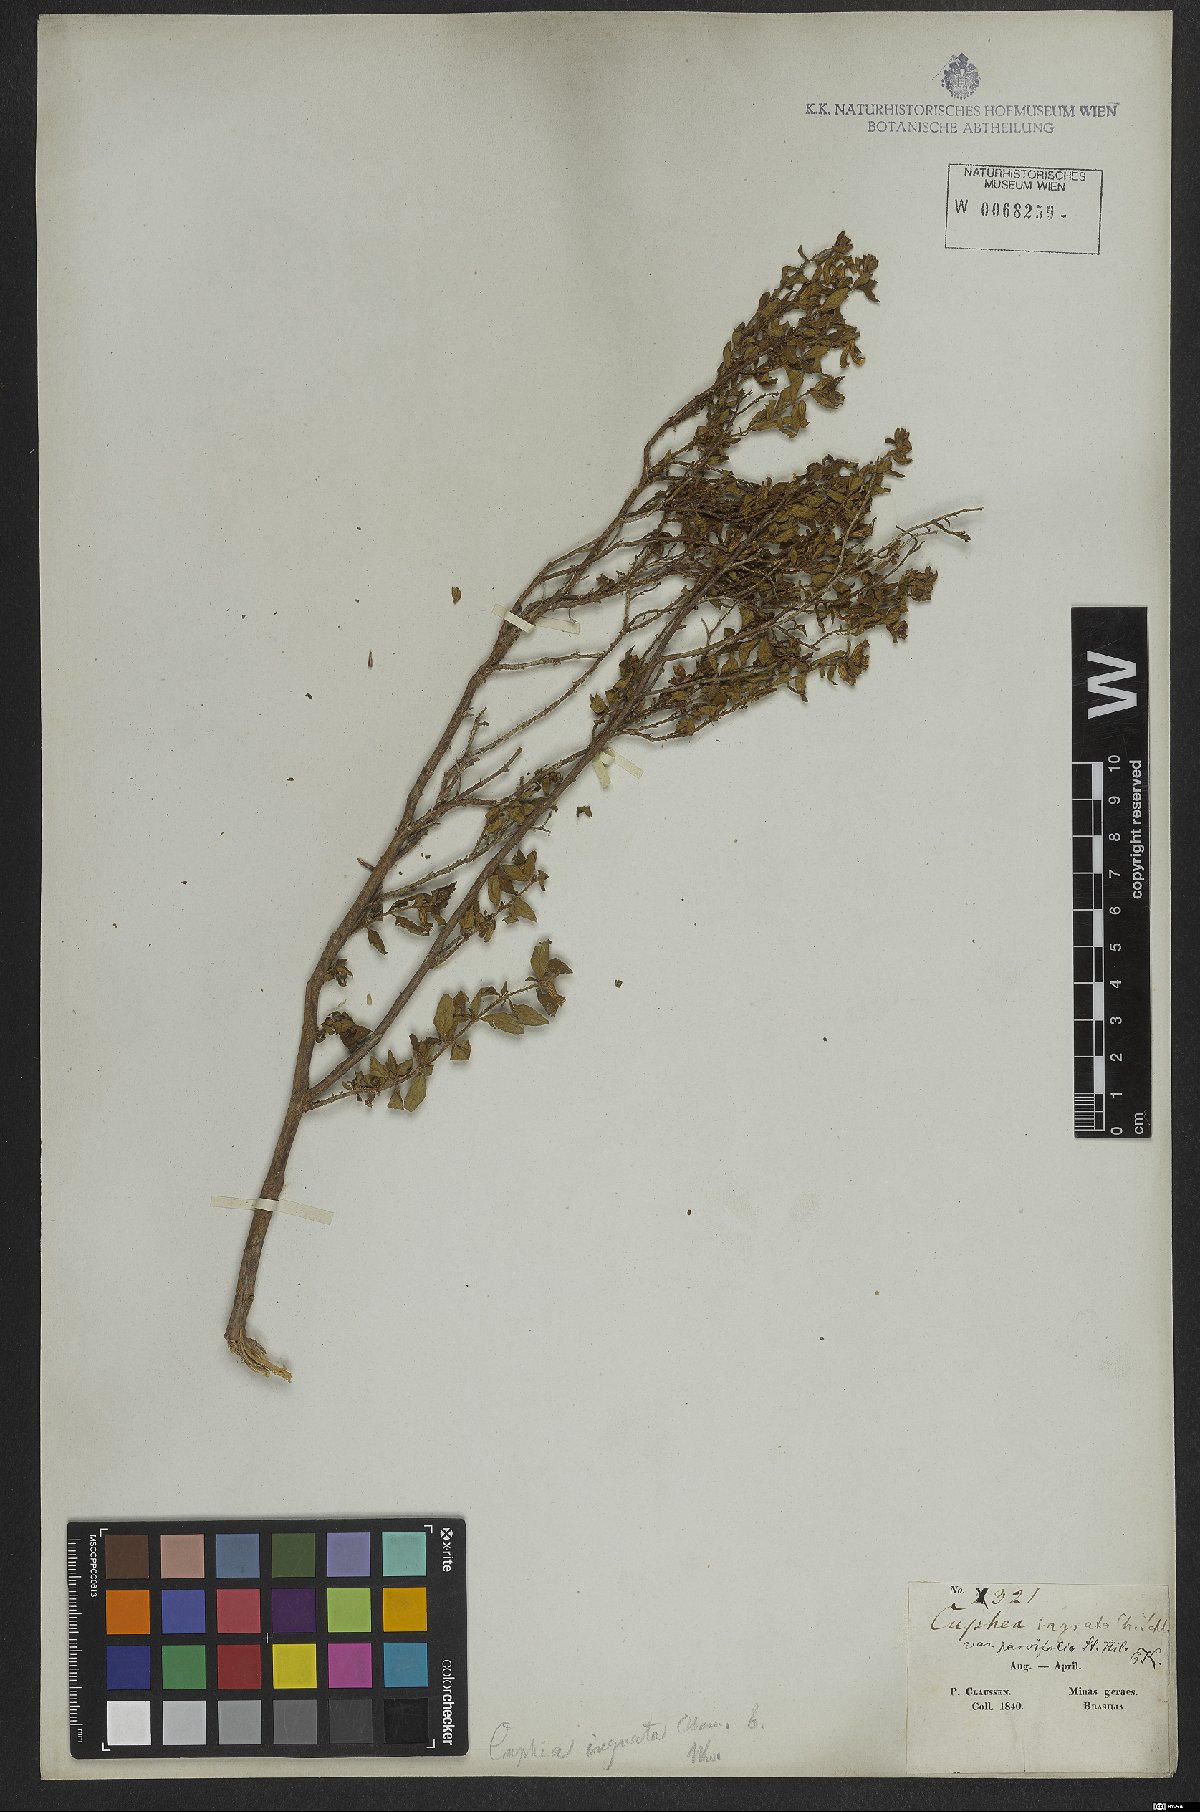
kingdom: Plantae
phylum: Tracheophyta
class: Magnoliopsida
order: Myrtales
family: Lythraceae
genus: Cuphea
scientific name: Cuphea ingrata
